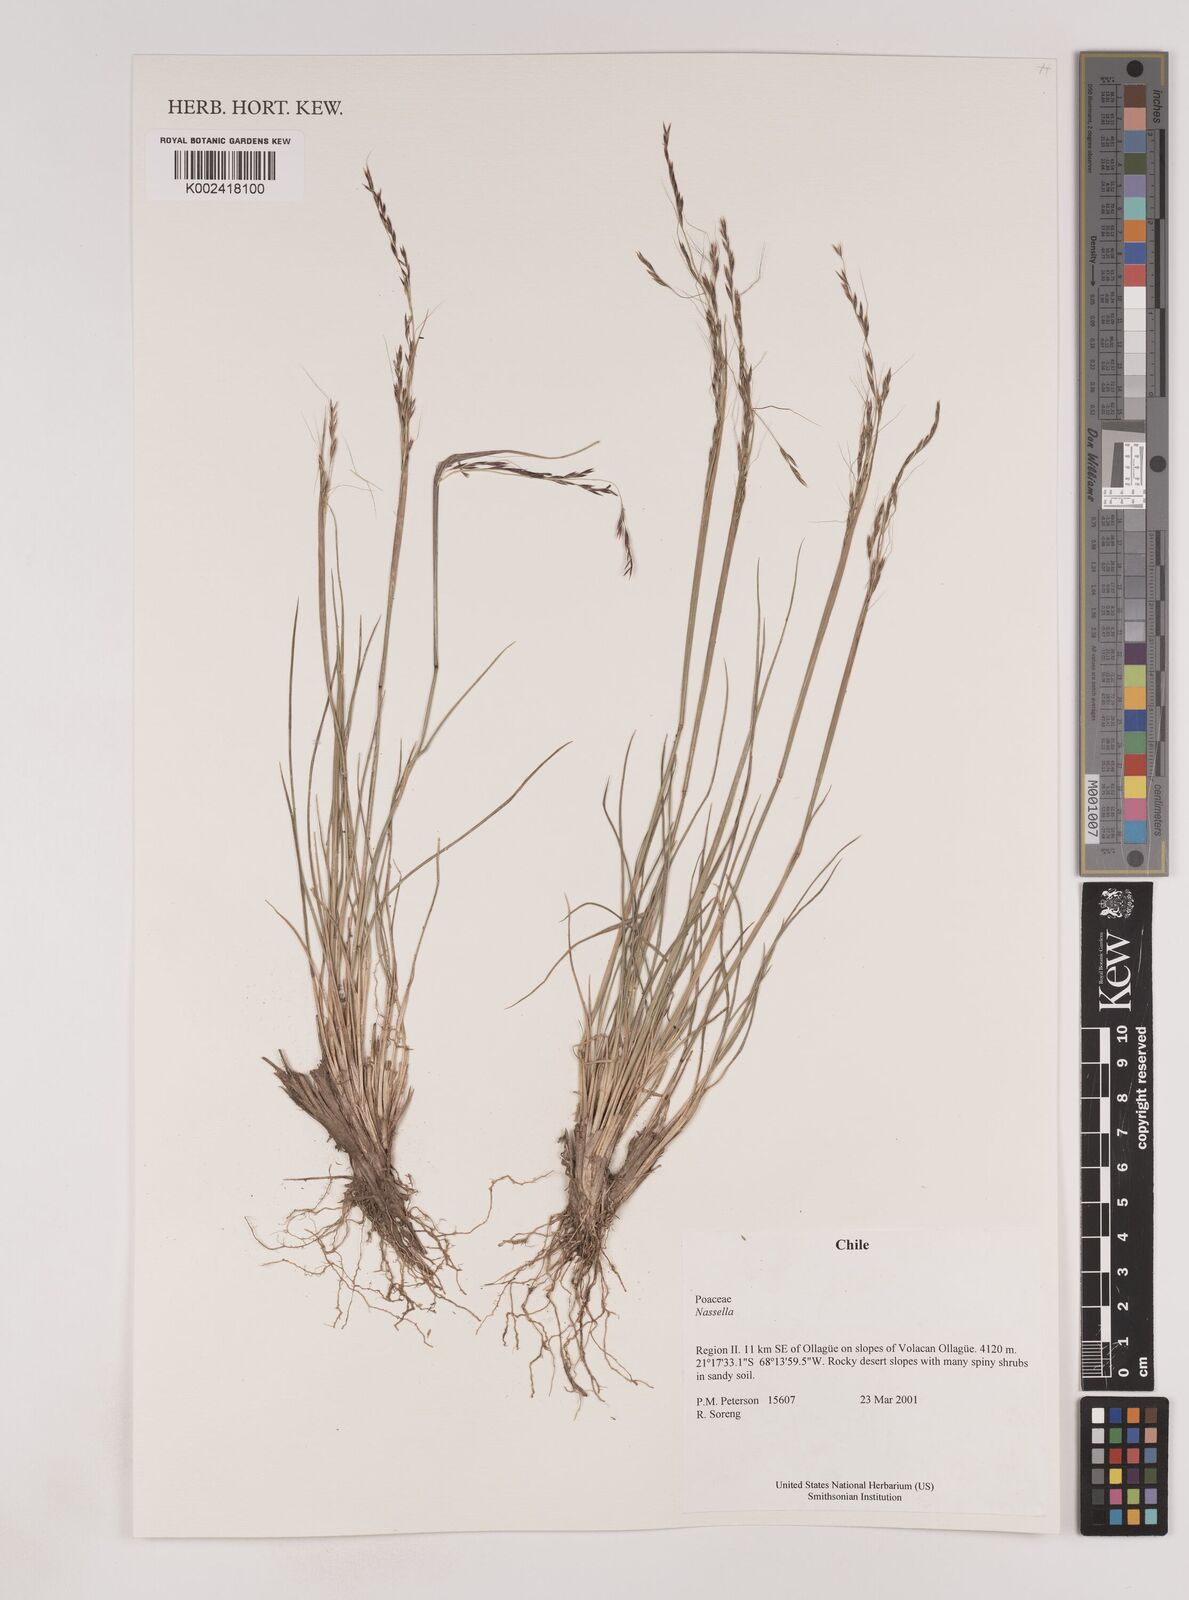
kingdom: Plantae
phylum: Tracheophyta
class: Liliopsida
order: Poales
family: Poaceae
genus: Nassella
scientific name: Nassella
